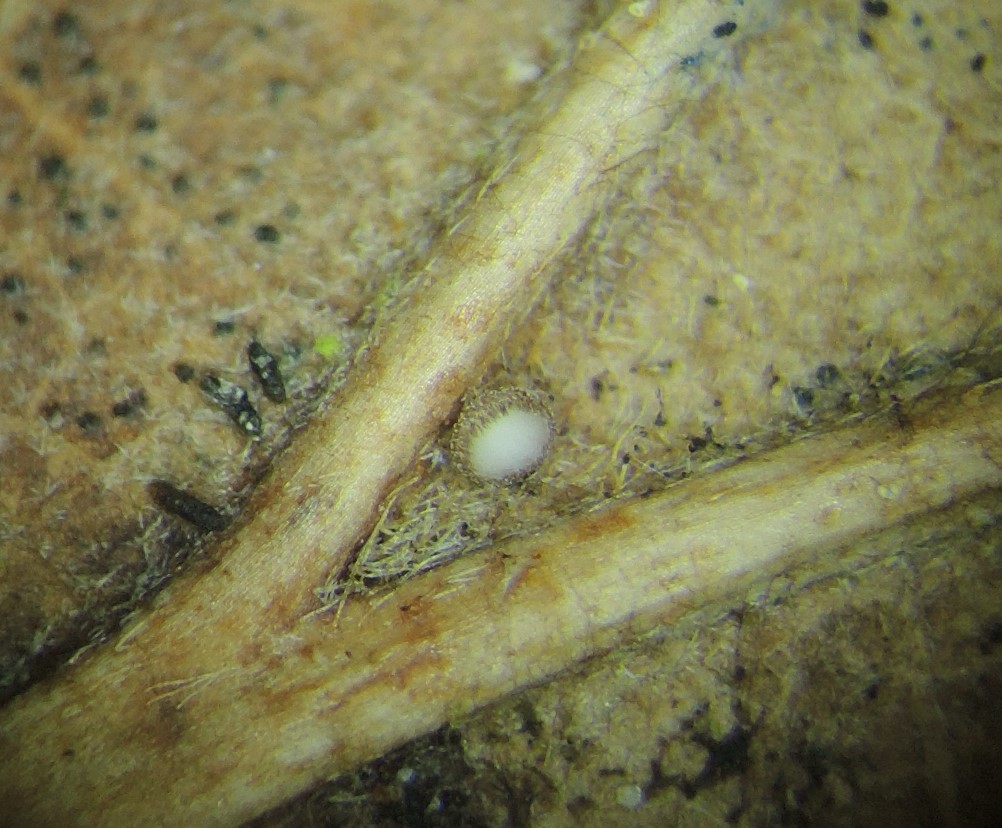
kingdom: Fungi
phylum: Ascomycota
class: Leotiomycetes
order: Helotiales
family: Lachnaceae
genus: Brunnipila
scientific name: Brunnipila brunneola
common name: læderbrun frynseskive
